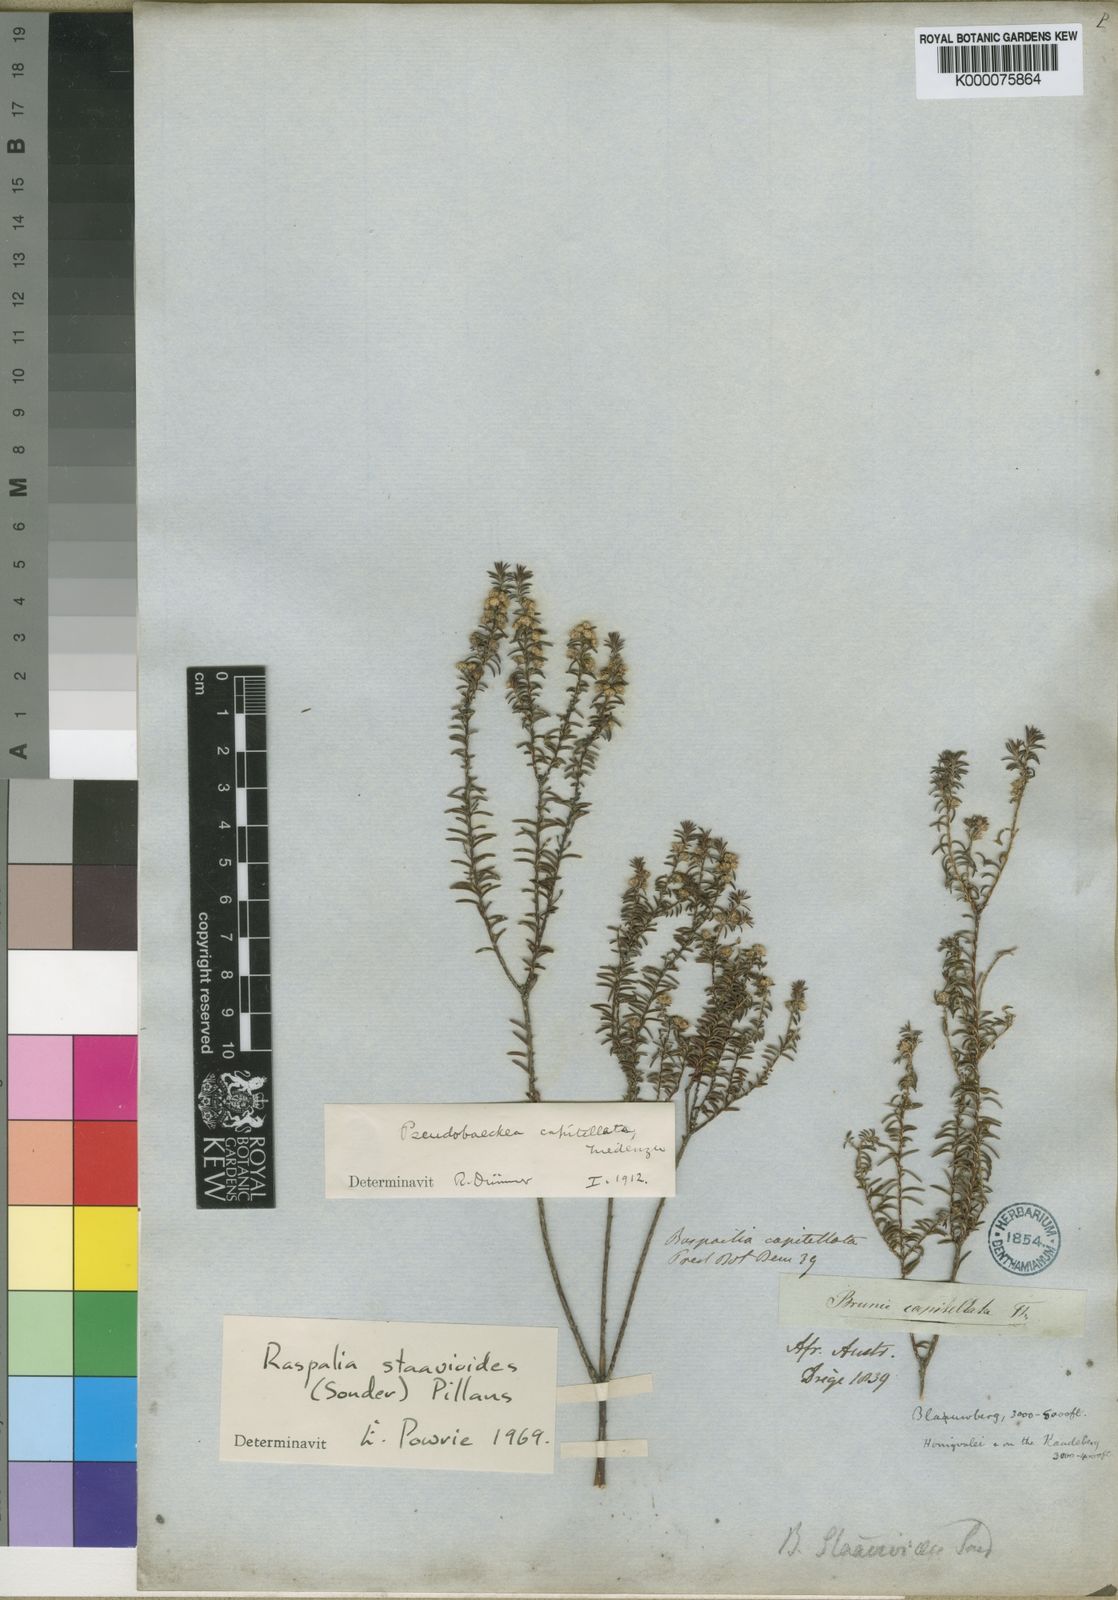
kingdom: Plantae
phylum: Tracheophyta
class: Magnoliopsida
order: Bruniales
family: Bruniaceae
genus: Staavia
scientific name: Staavia staavioides
